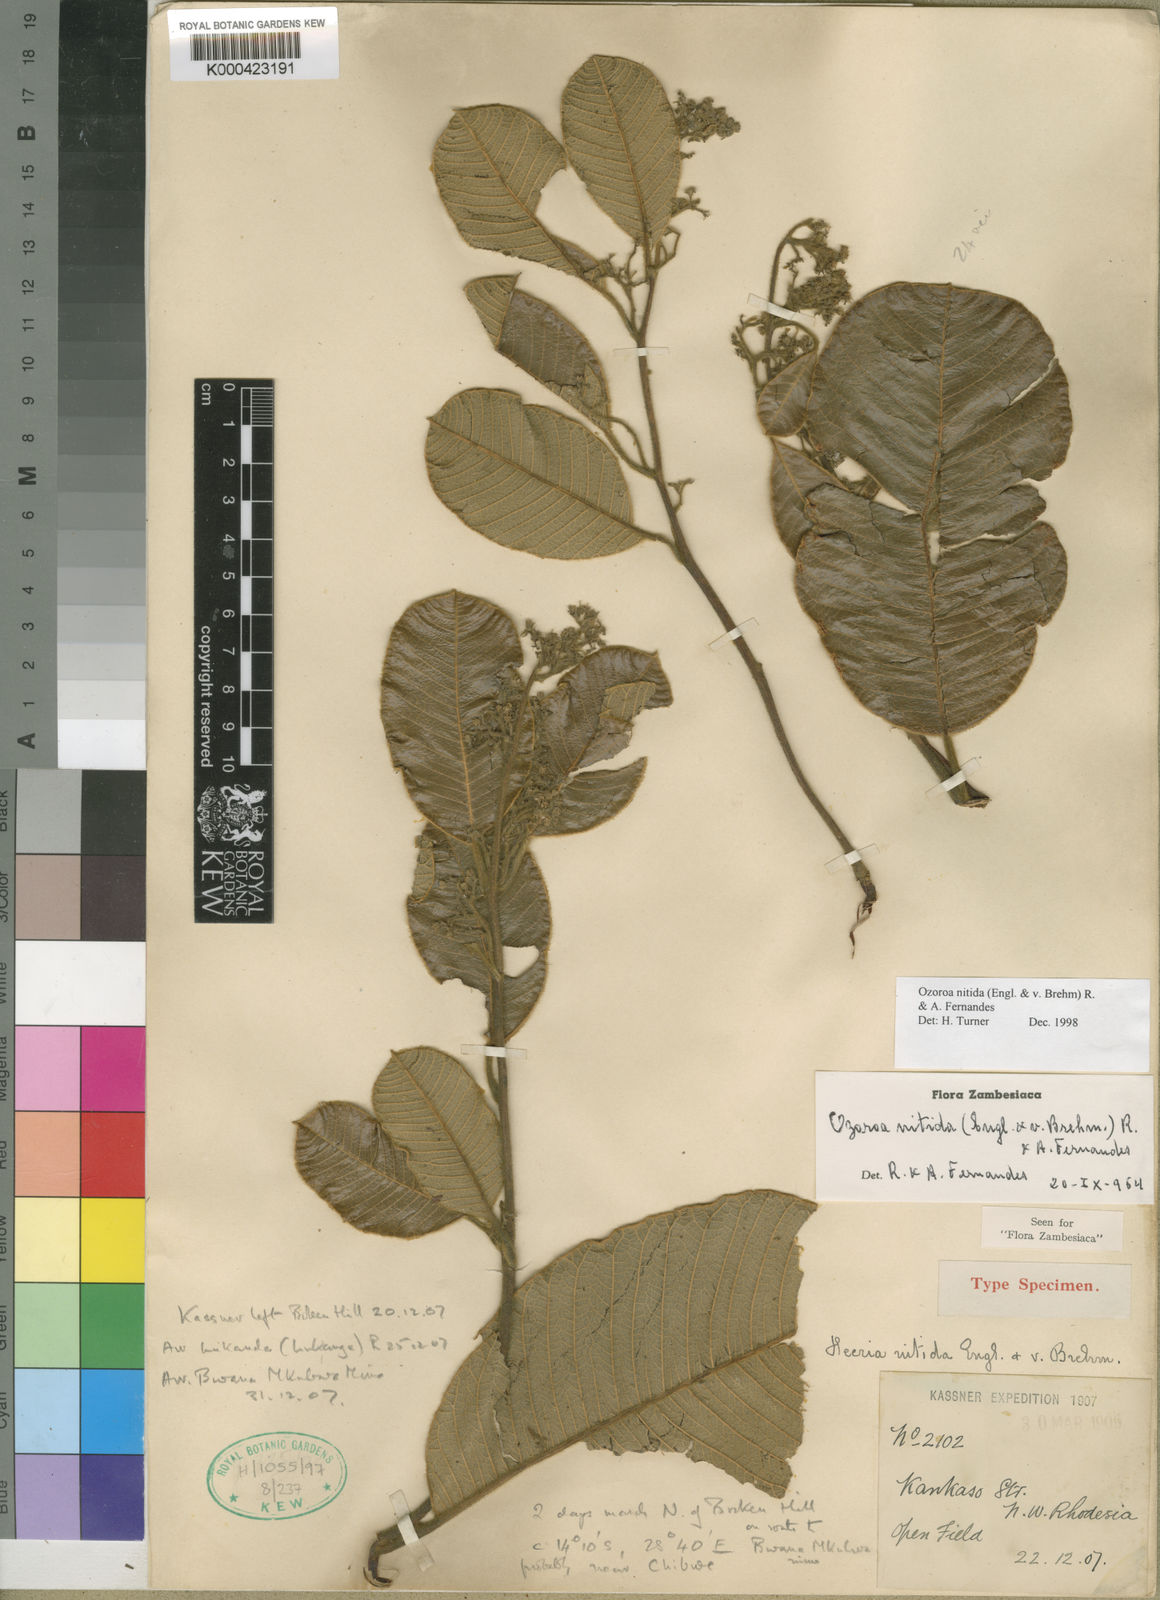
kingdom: Plantae
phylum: Tracheophyta
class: Magnoliopsida
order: Sapindales
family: Anacardiaceae
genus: Ozoroa
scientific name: Ozoroa nitida
